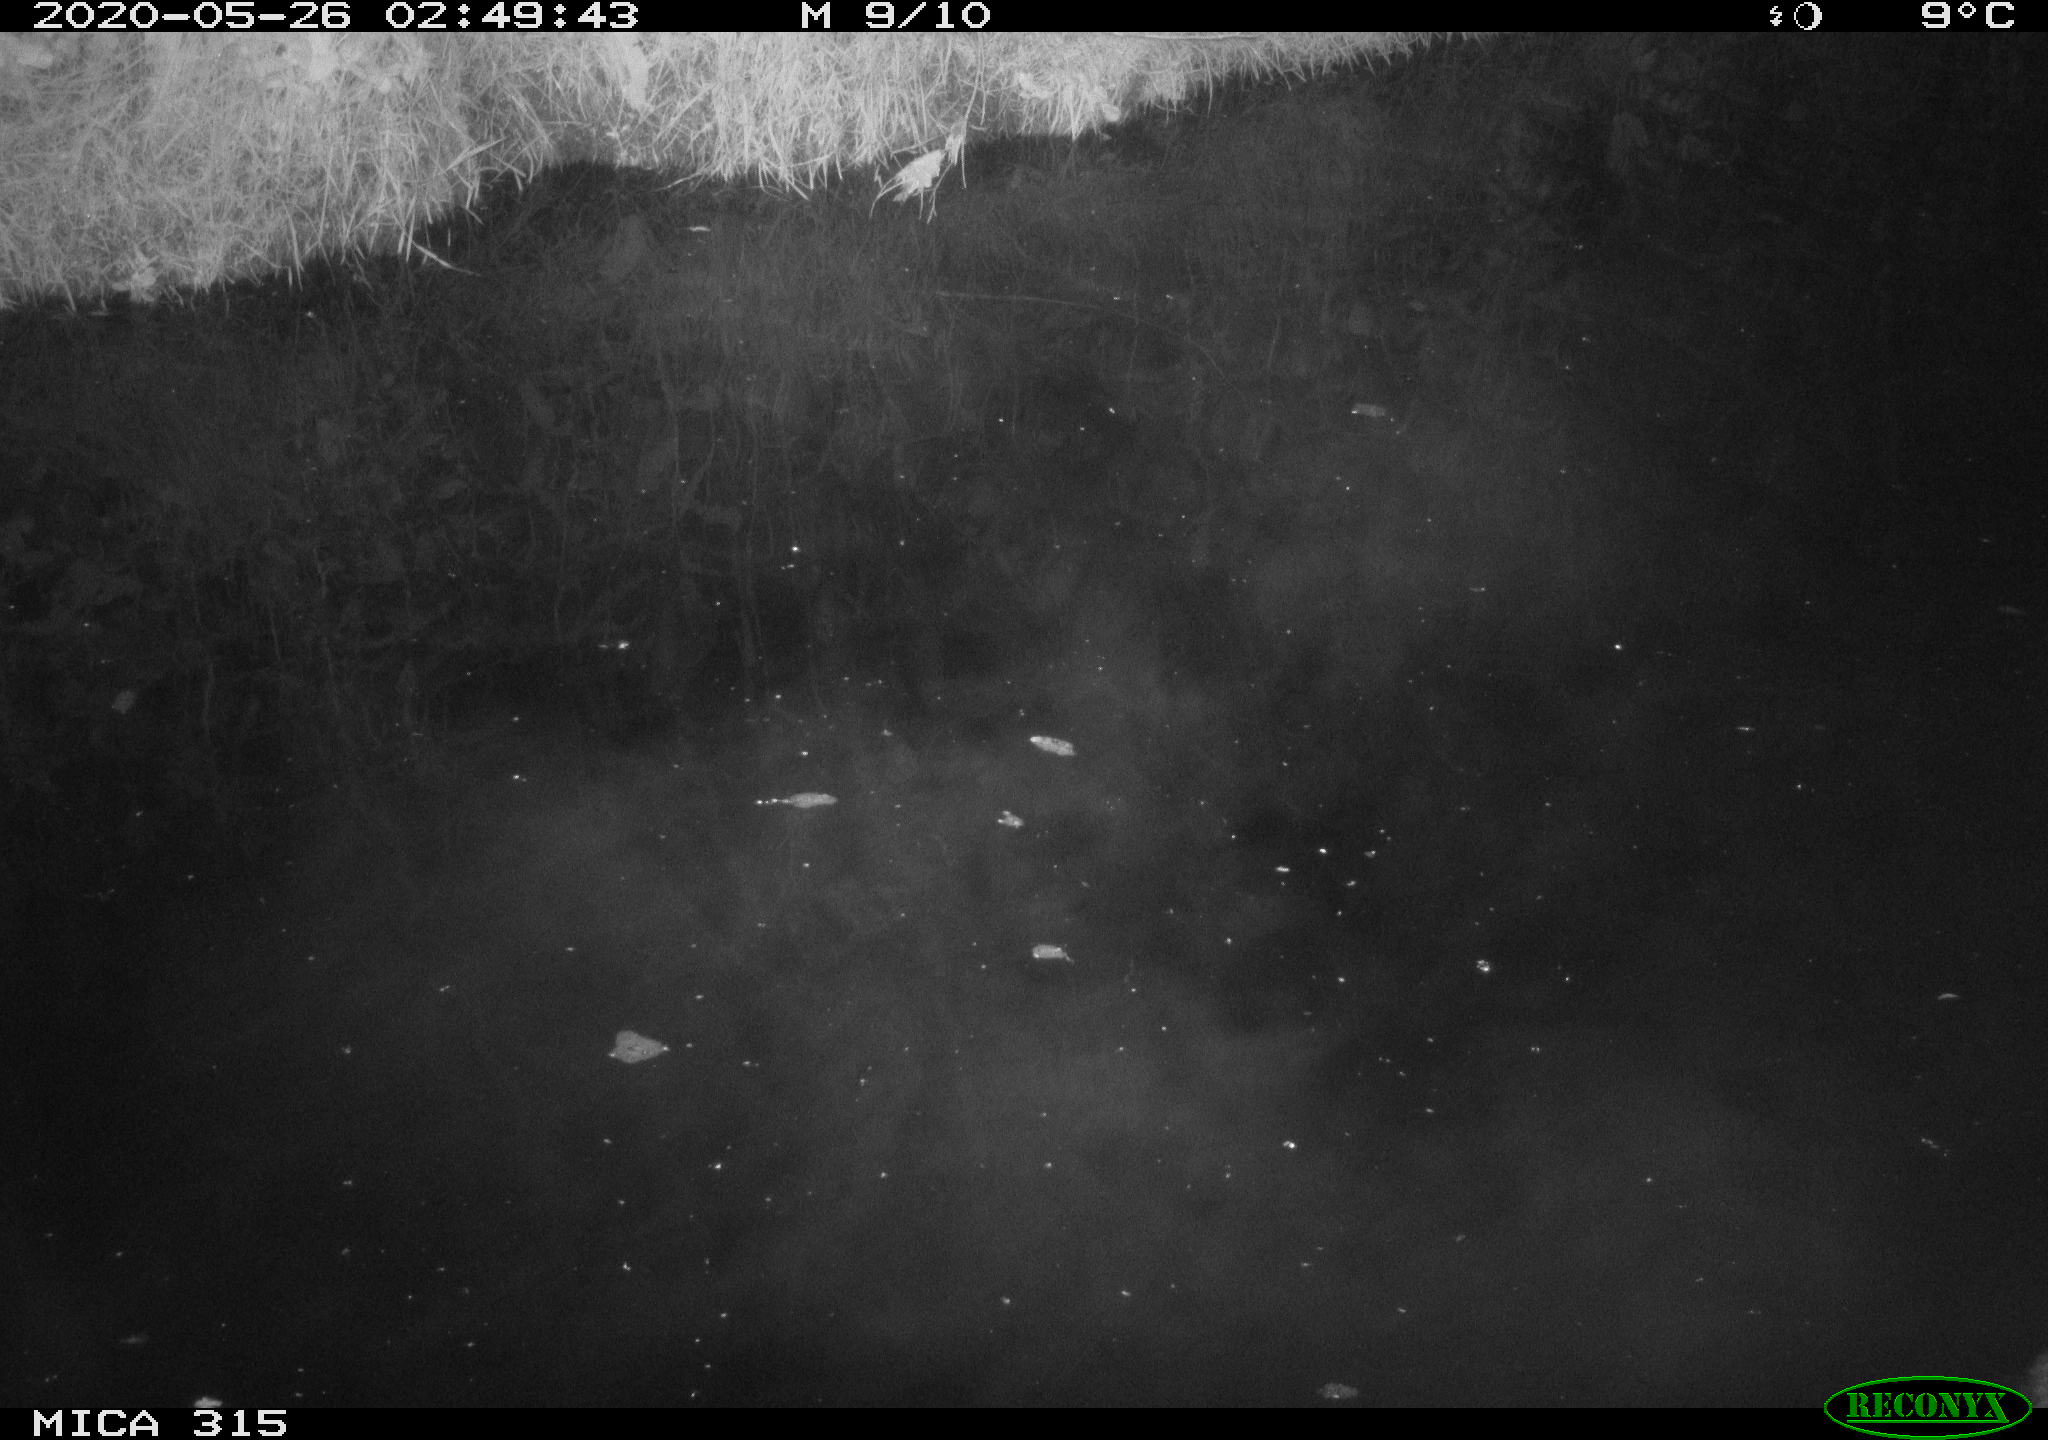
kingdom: Animalia
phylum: Chordata
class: Aves
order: Anseriformes
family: Anatidae
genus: Anas
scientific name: Anas platyrhynchos
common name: Mallard
